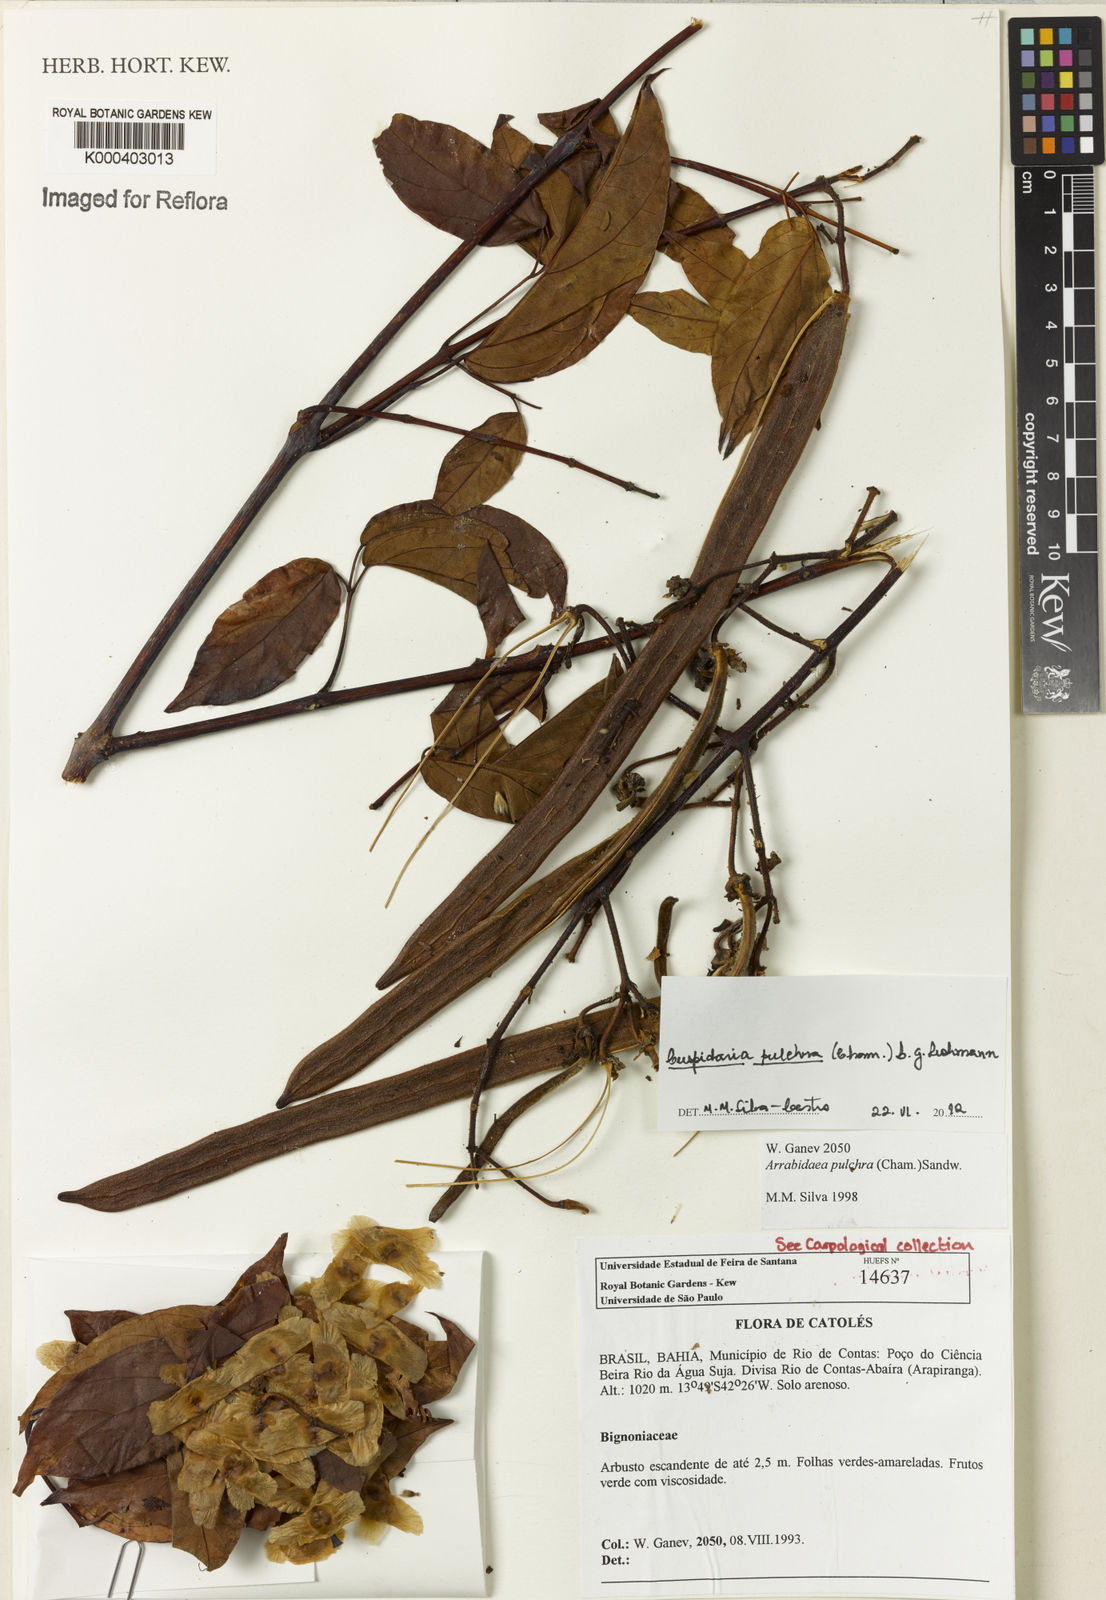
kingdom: Plantae
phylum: Tracheophyta
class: Magnoliopsida
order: Lamiales
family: Bignoniaceae
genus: Cuspidaria
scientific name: Cuspidaria pulchra
